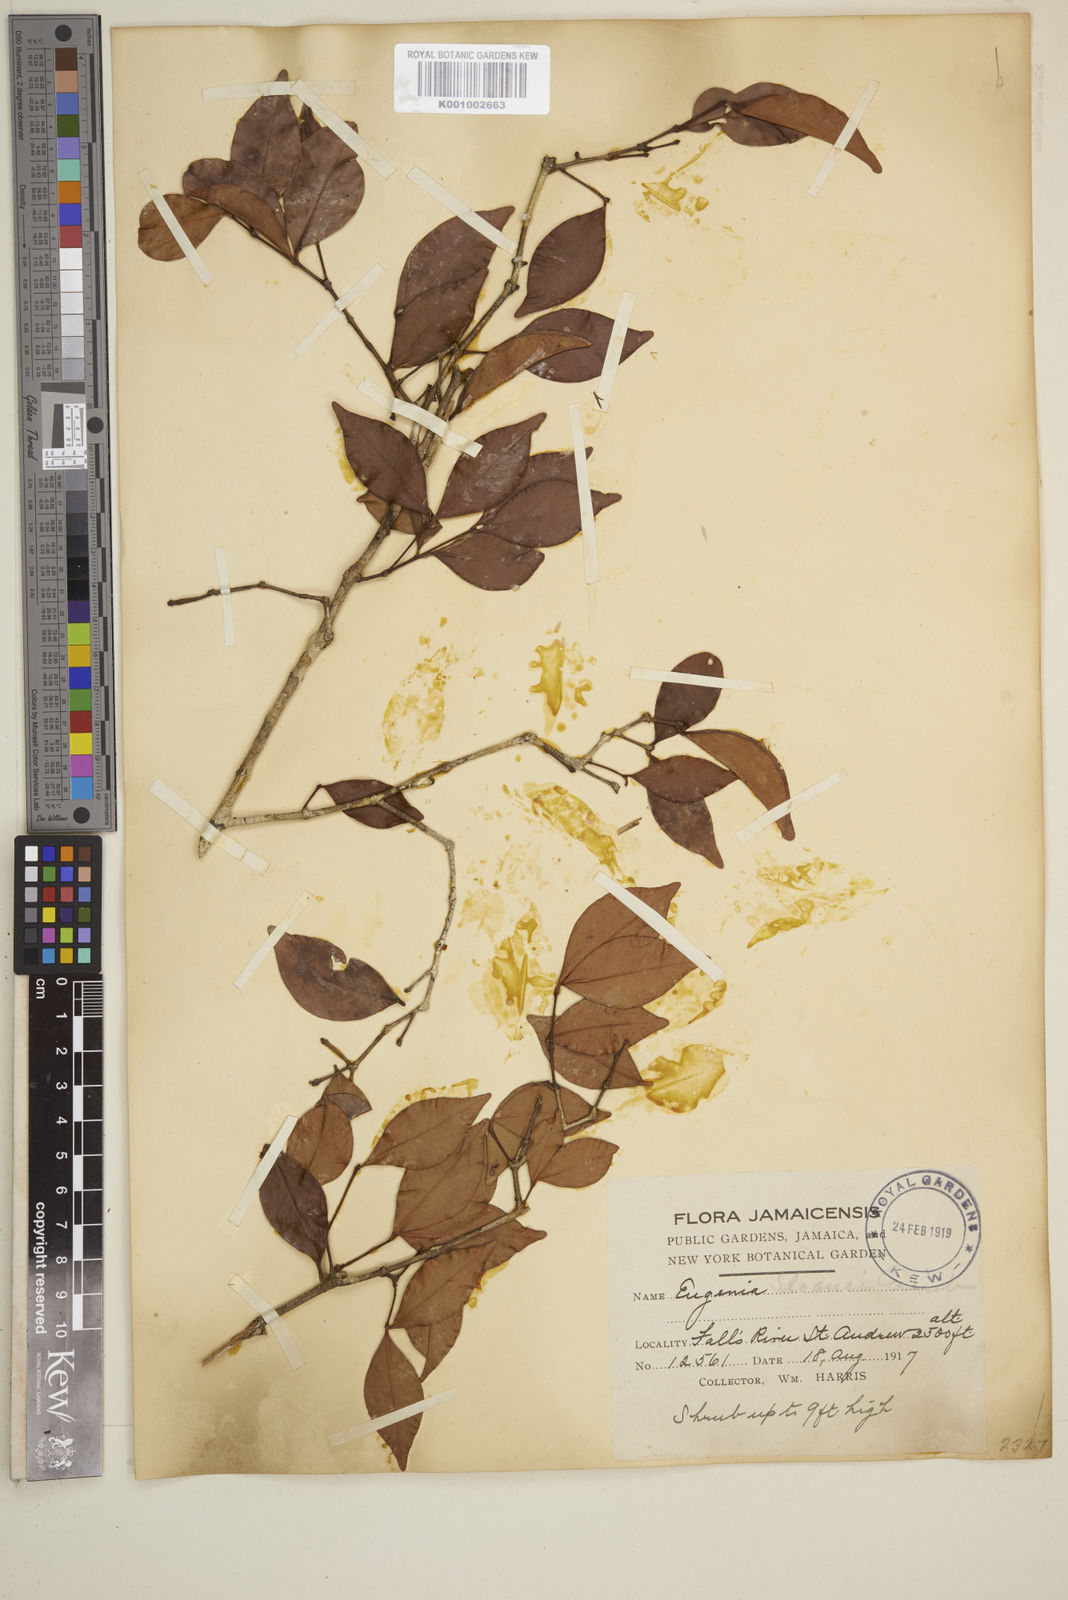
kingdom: Plantae
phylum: Tracheophyta
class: Magnoliopsida
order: Myrtales
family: Myrtaceae
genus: Eugenia
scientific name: Eugenia
